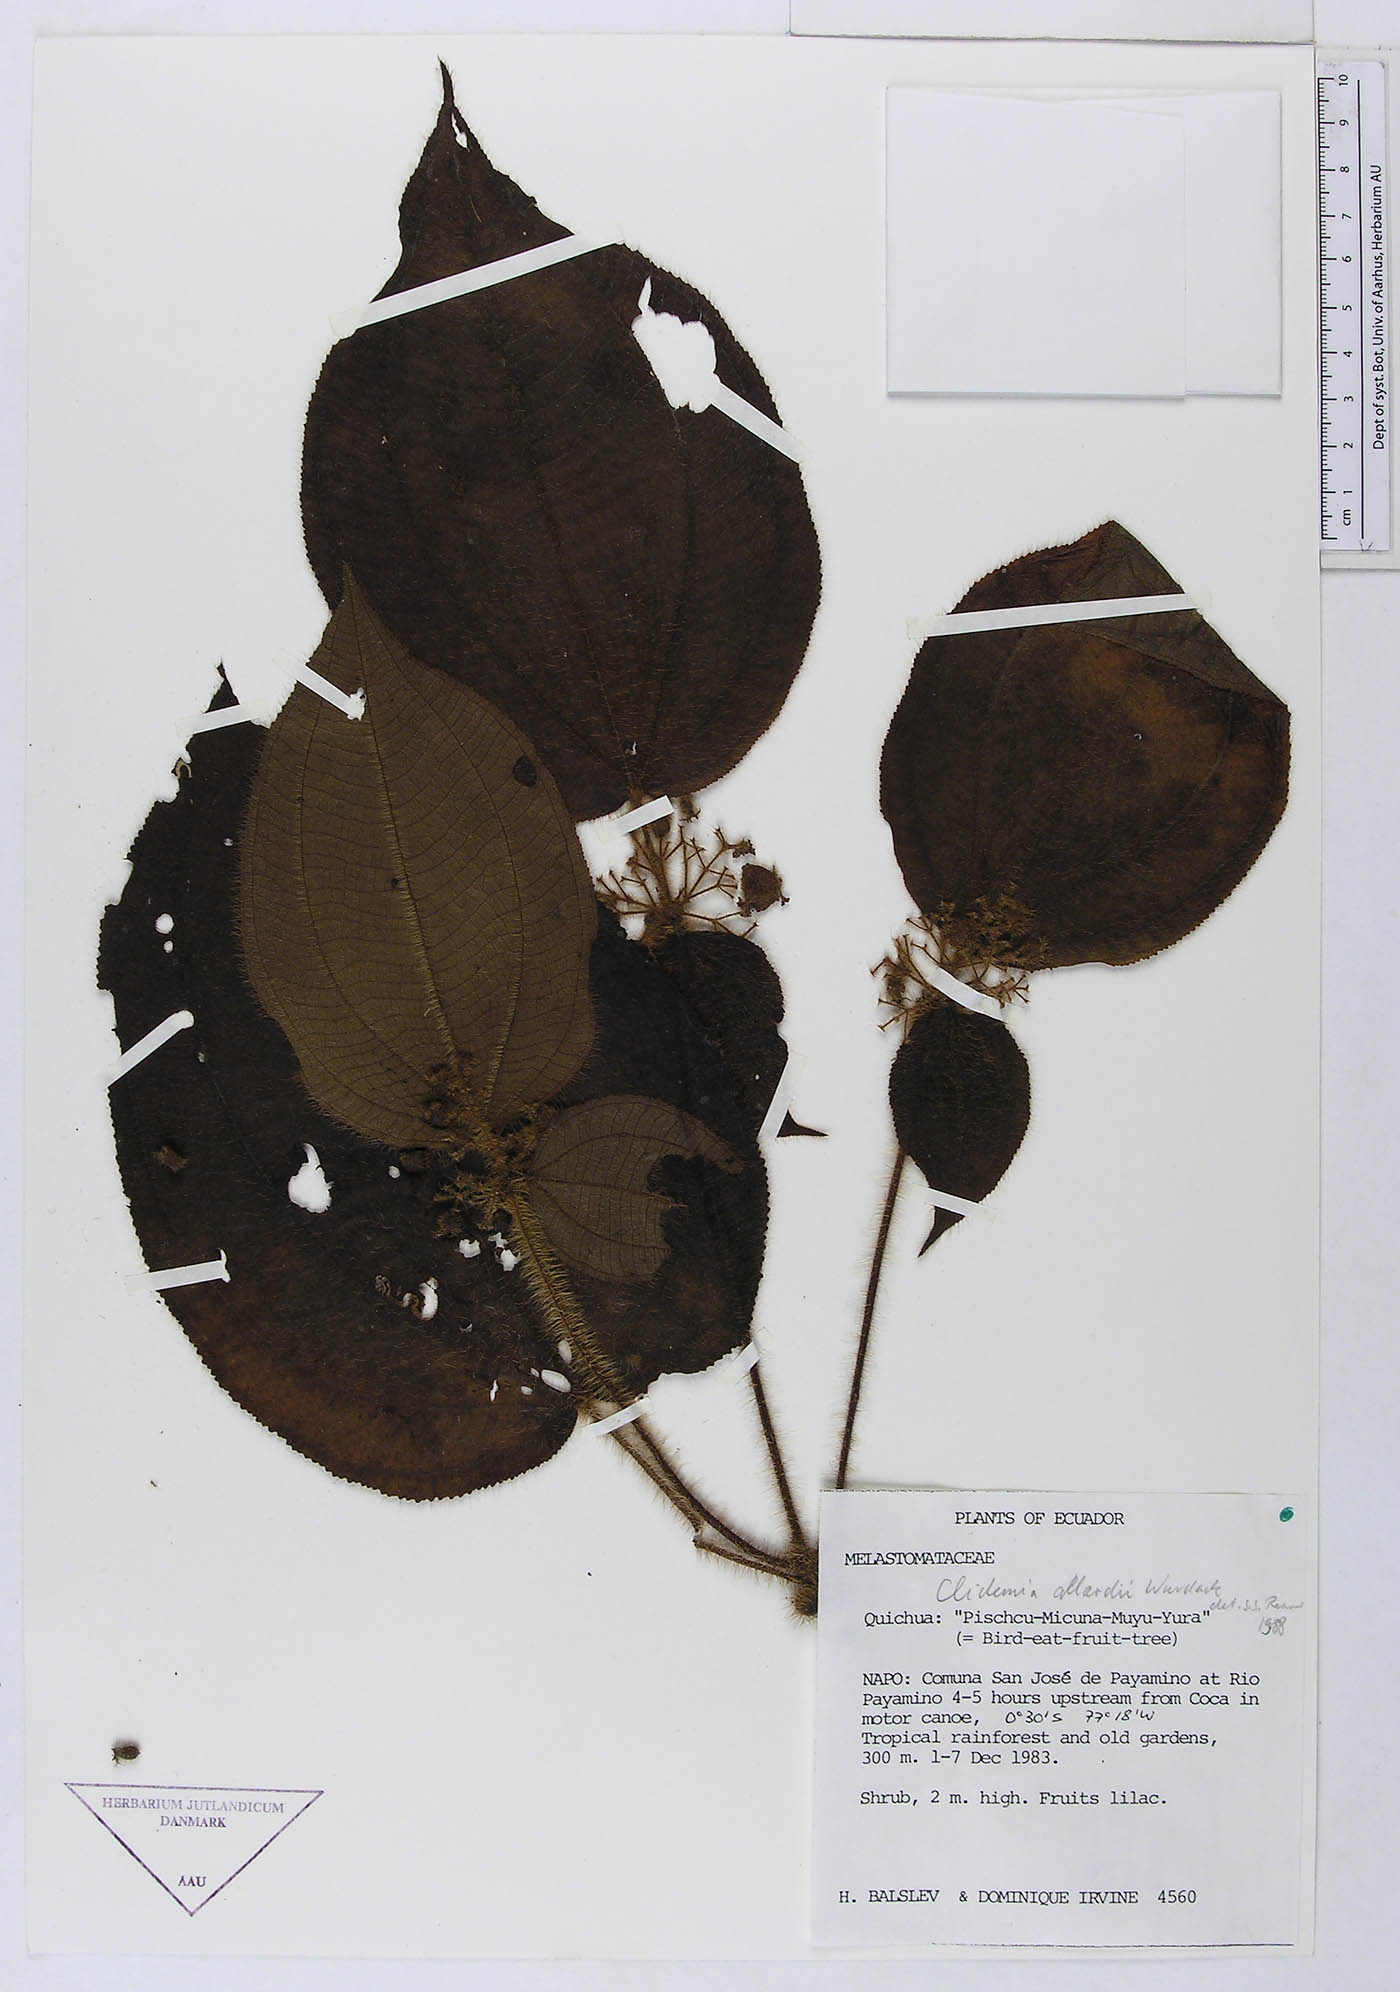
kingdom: Plantae
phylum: Tracheophyta
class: Magnoliopsida
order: Myrtales
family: Melastomataceae
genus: Miconia
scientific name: Miconia allardii
